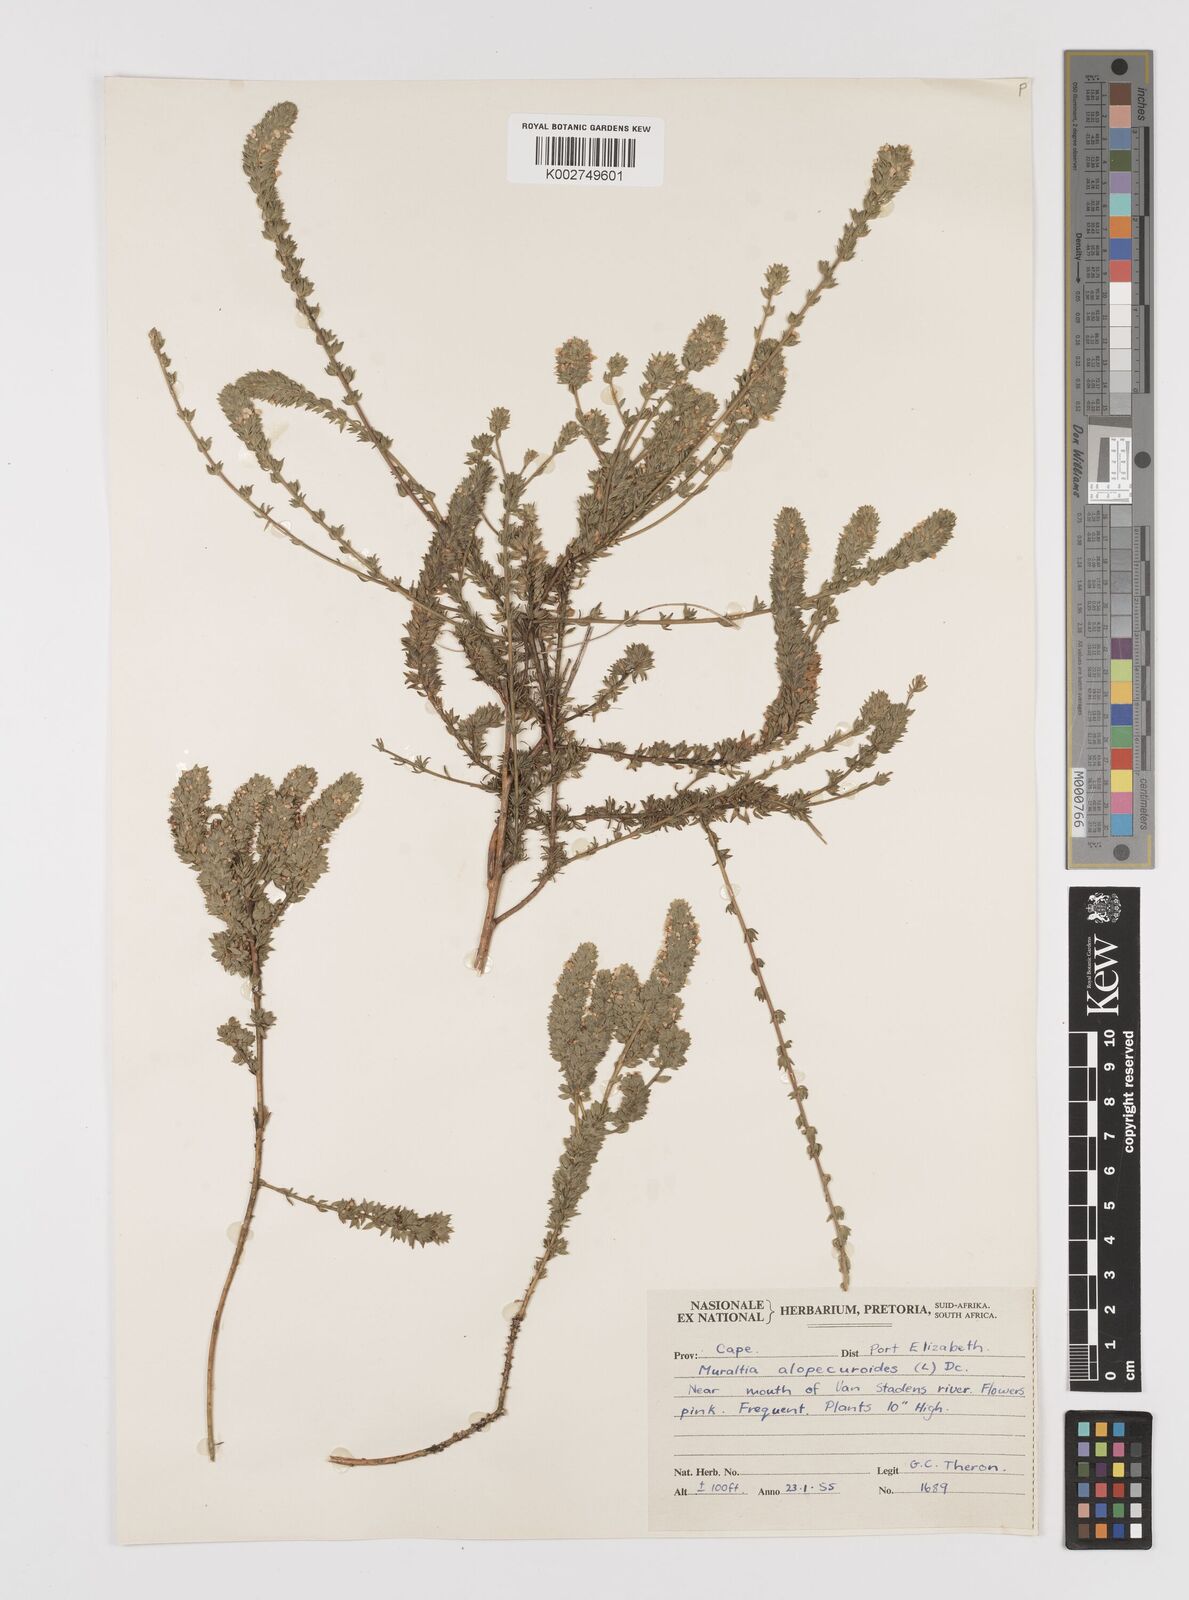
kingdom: Plantae
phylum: Tracheophyta
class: Magnoliopsida
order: Fabales
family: Polygalaceae
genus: Muraltia
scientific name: Muraltia alopecuroides
